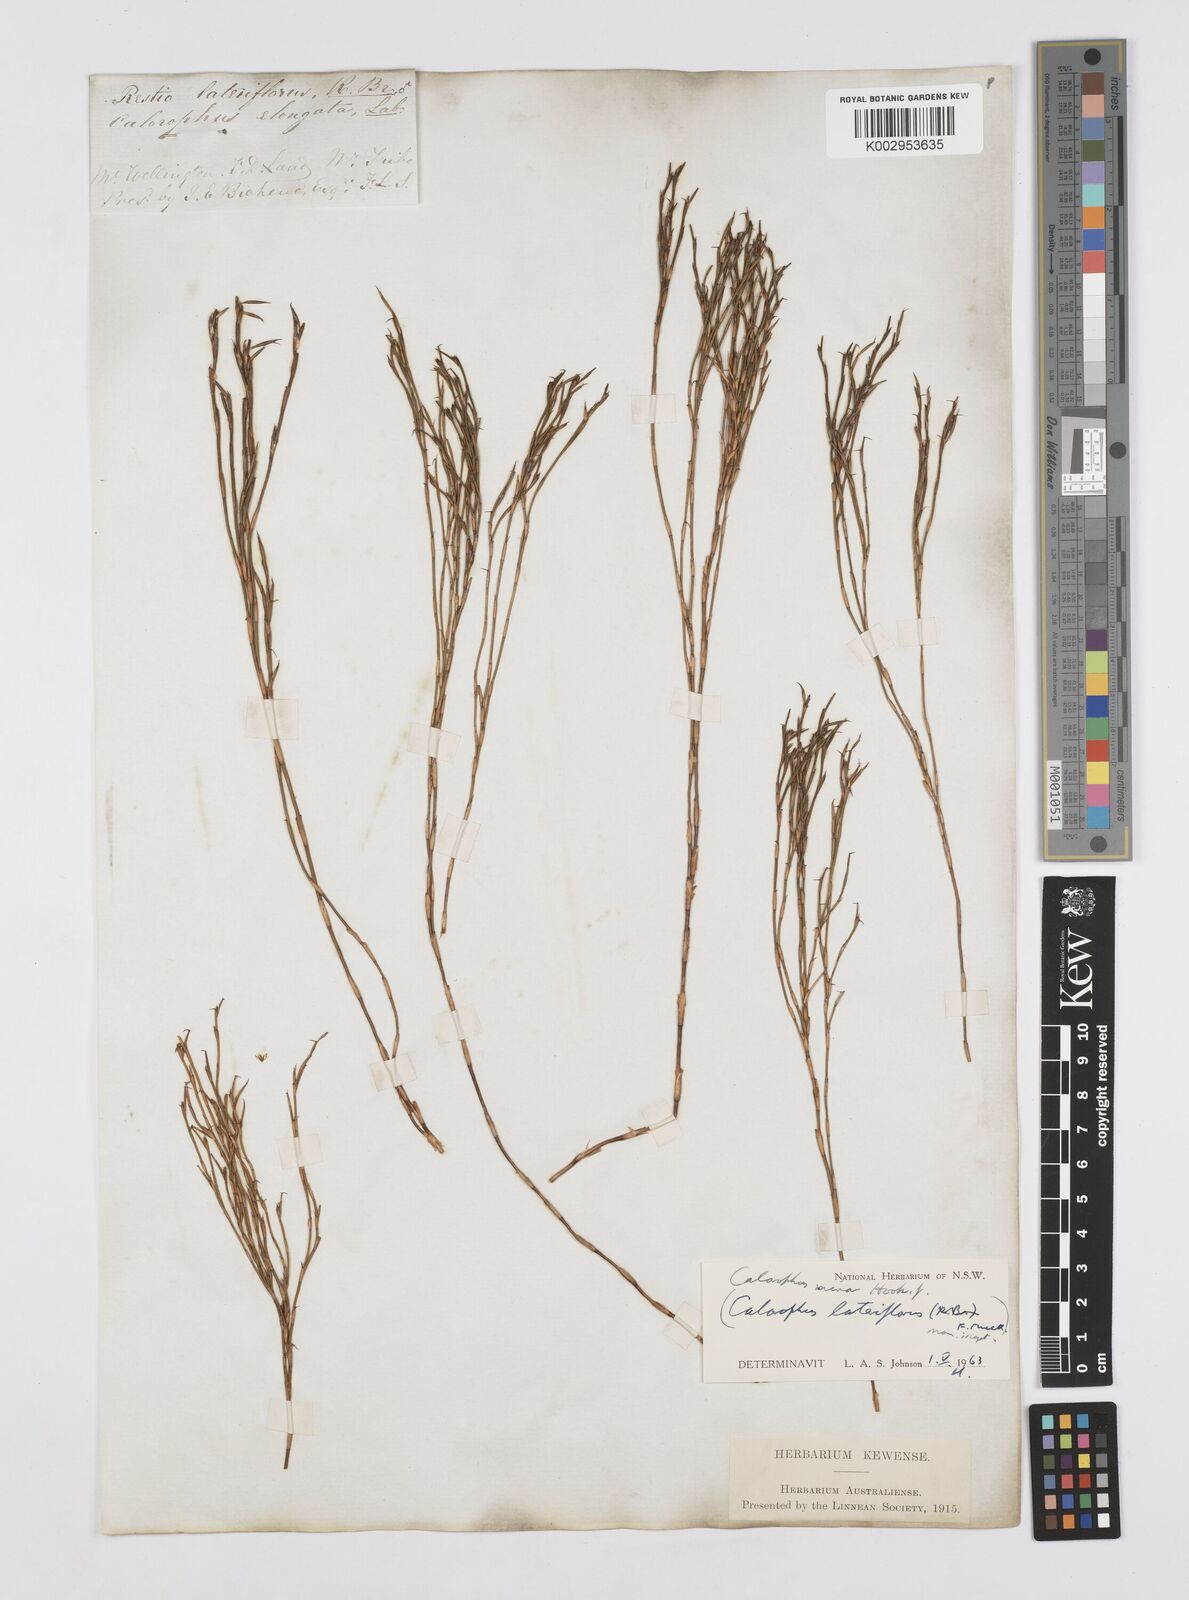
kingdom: Plantae
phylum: Tracheophyta
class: Liliopsida
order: Poales
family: Restionaceae
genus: Empodisma
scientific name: Empodisma minus
